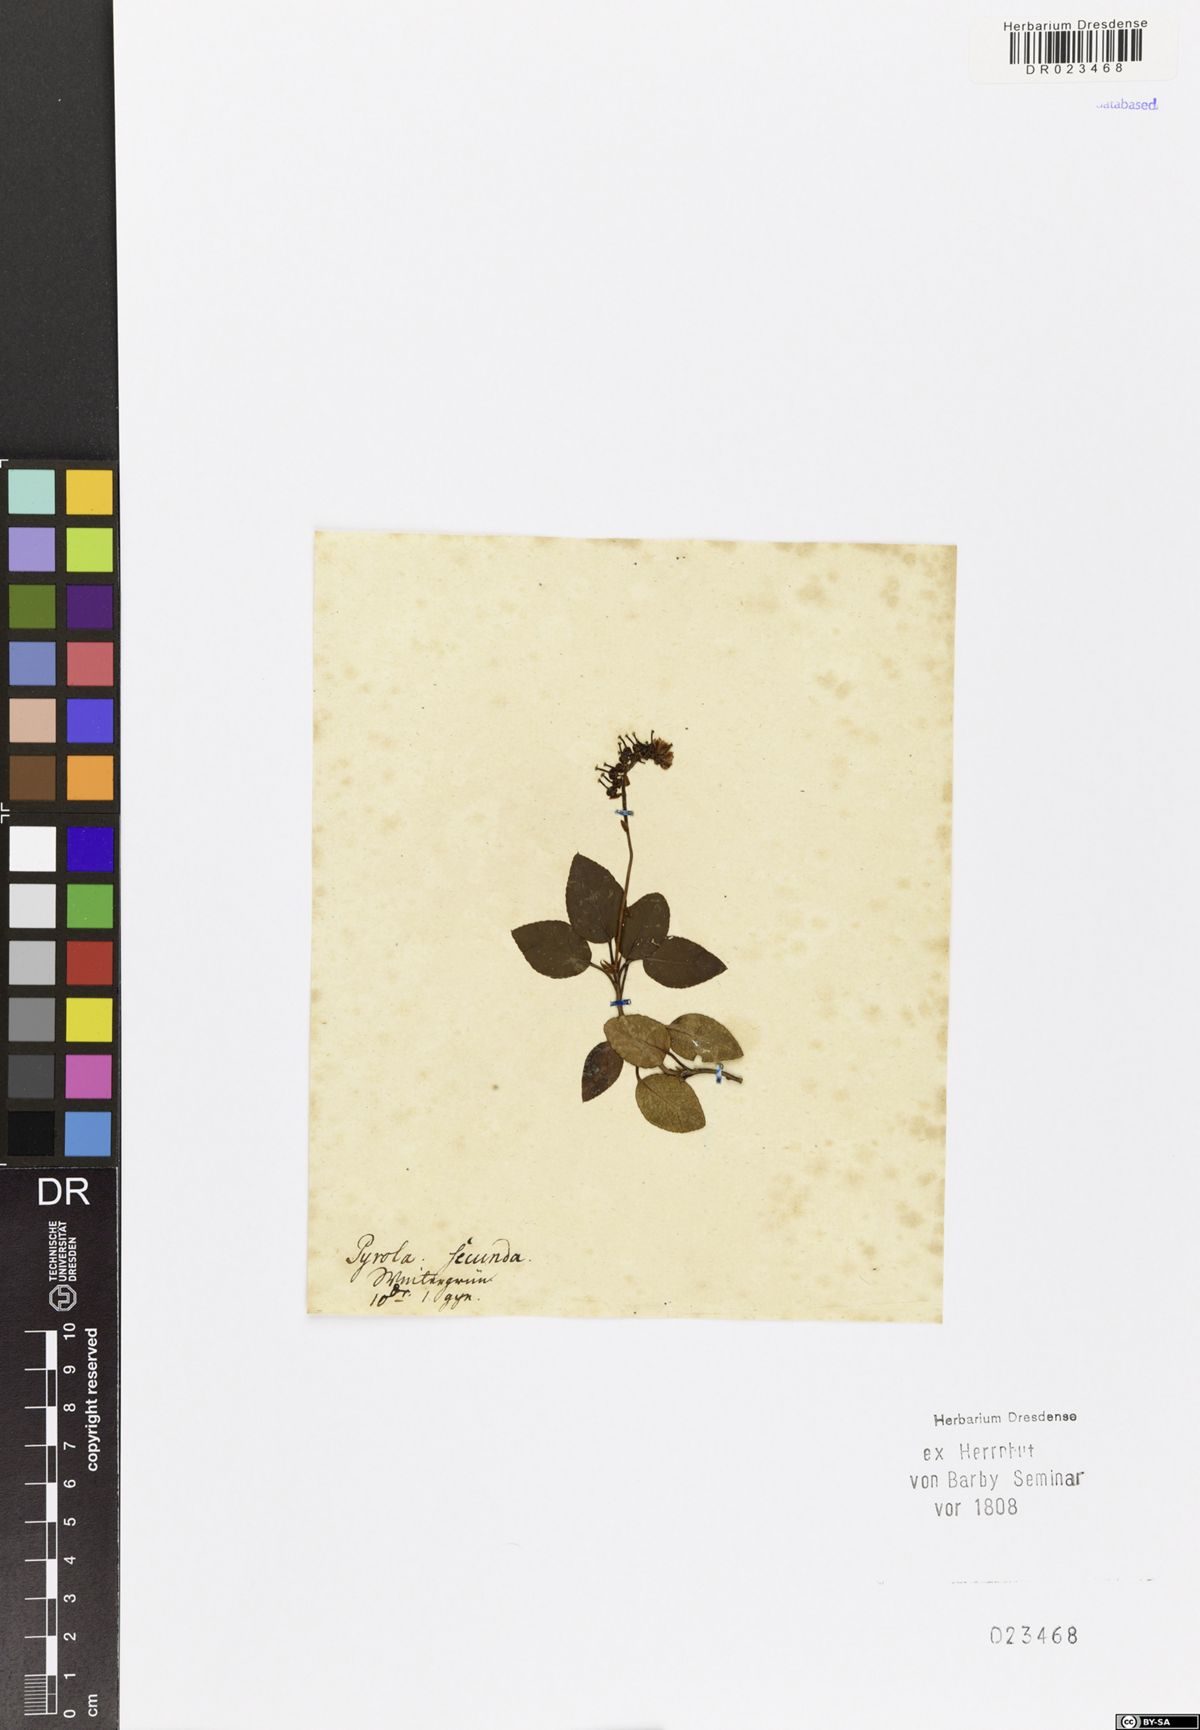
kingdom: Plantae
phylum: Tracheophyta
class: Magnoliopsida
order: Ericales
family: Ericaceae
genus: Orthilia
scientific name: Orthilia secunda
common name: One-sided orthilia
